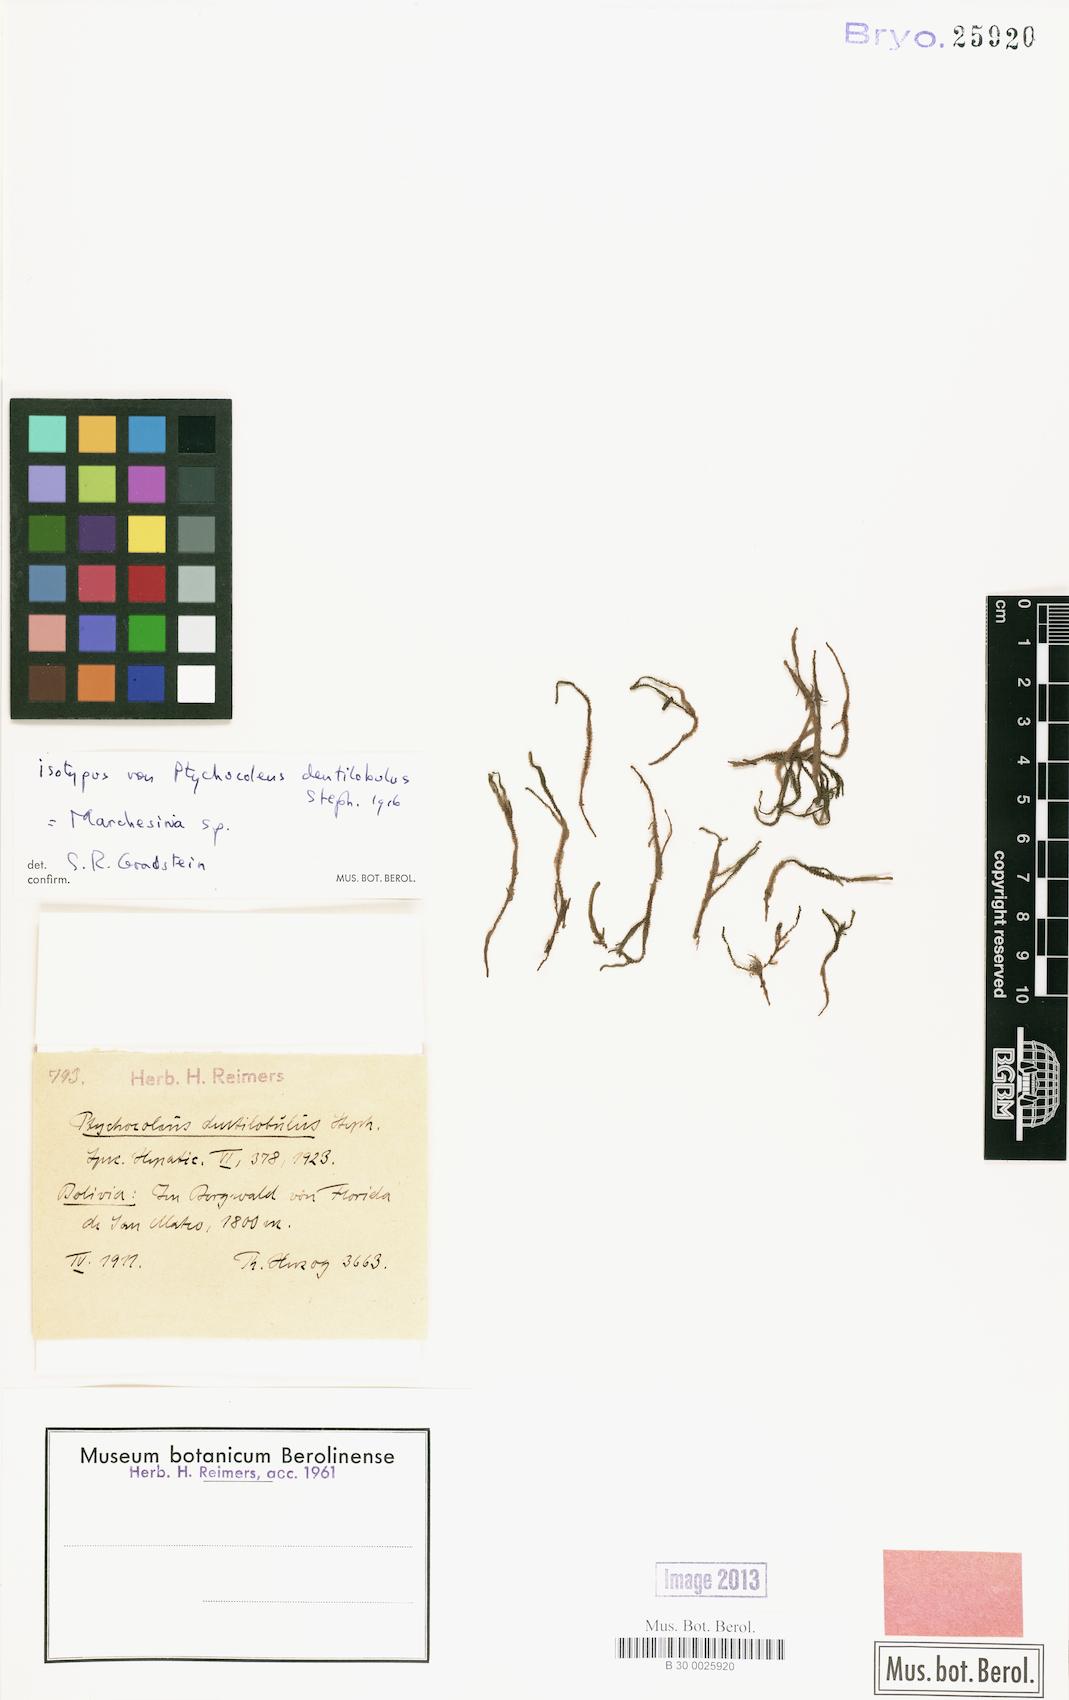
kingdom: Plantae
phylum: Marchantiophyta
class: Jungermanniopsida
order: Porellales
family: Lejeuneaceae
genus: Marchesinia
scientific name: Marchesinia
